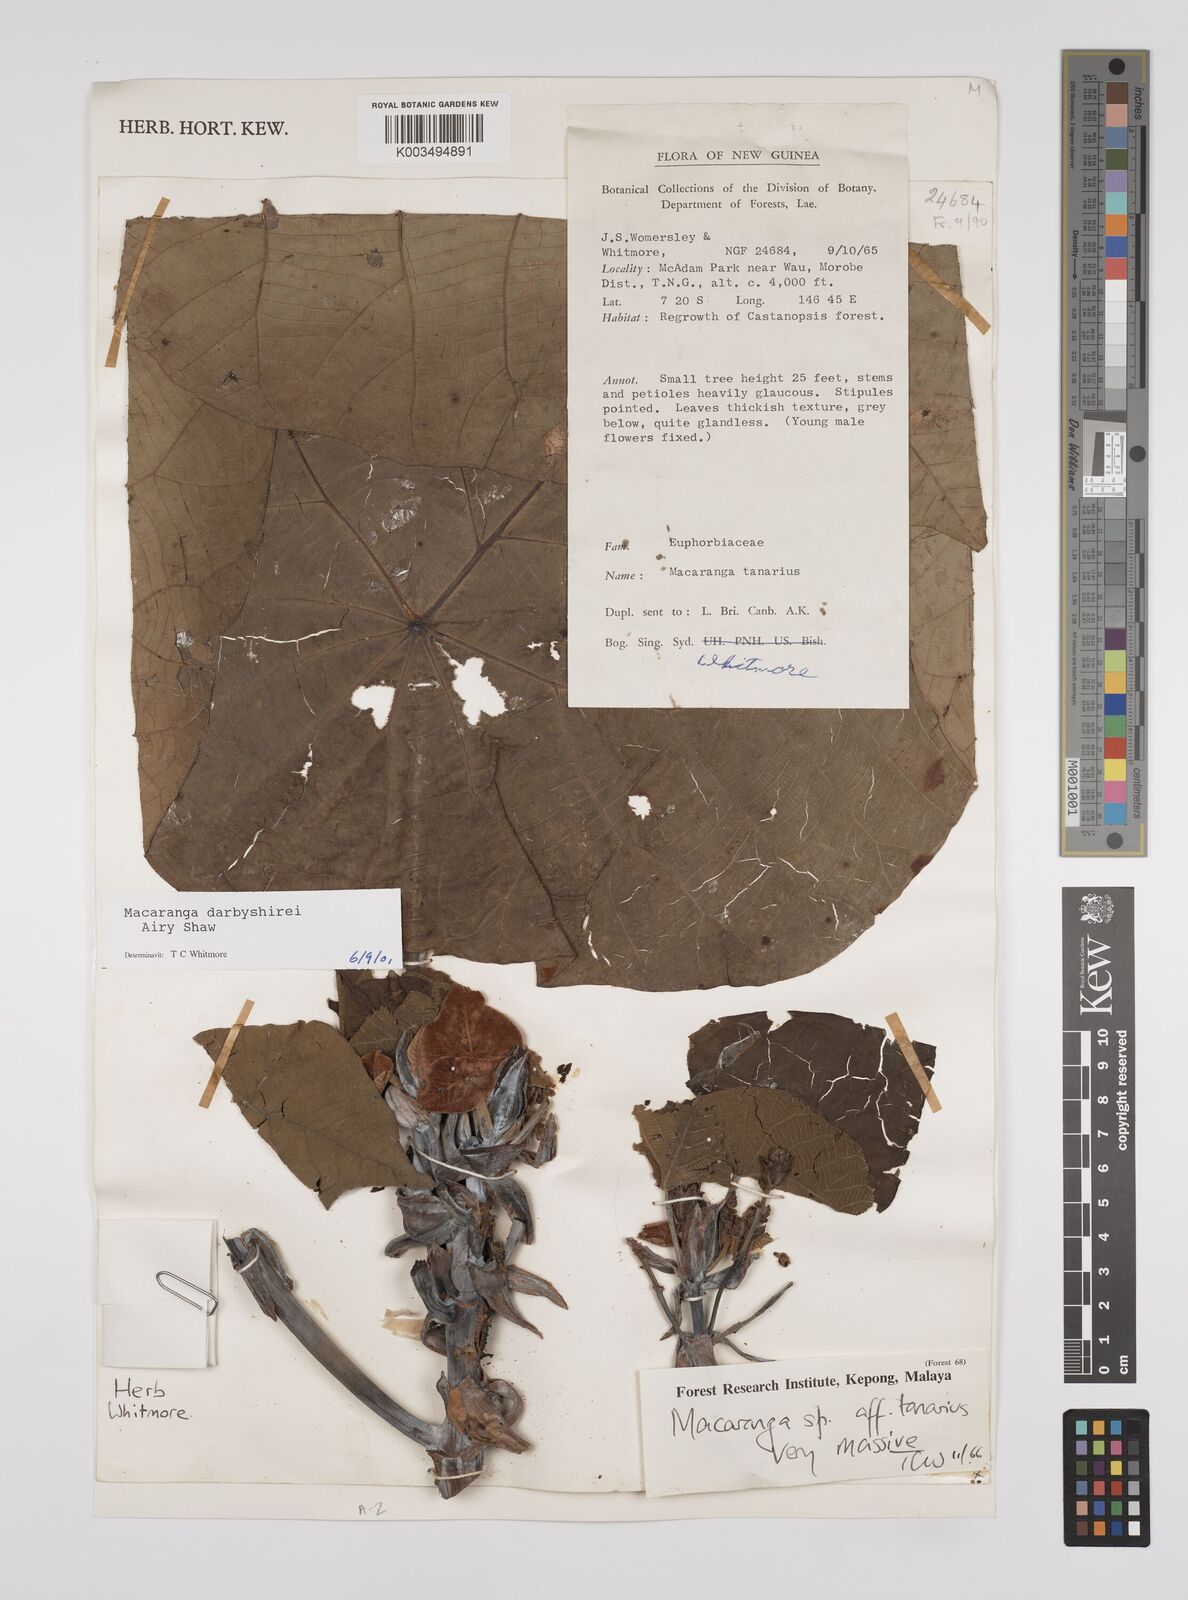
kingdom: Plantae
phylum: Tracheophyta
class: Magnoliopsida
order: Malpighiales
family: Euphorbiaceae
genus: Macaranga
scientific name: Macaranga darbyshirei
